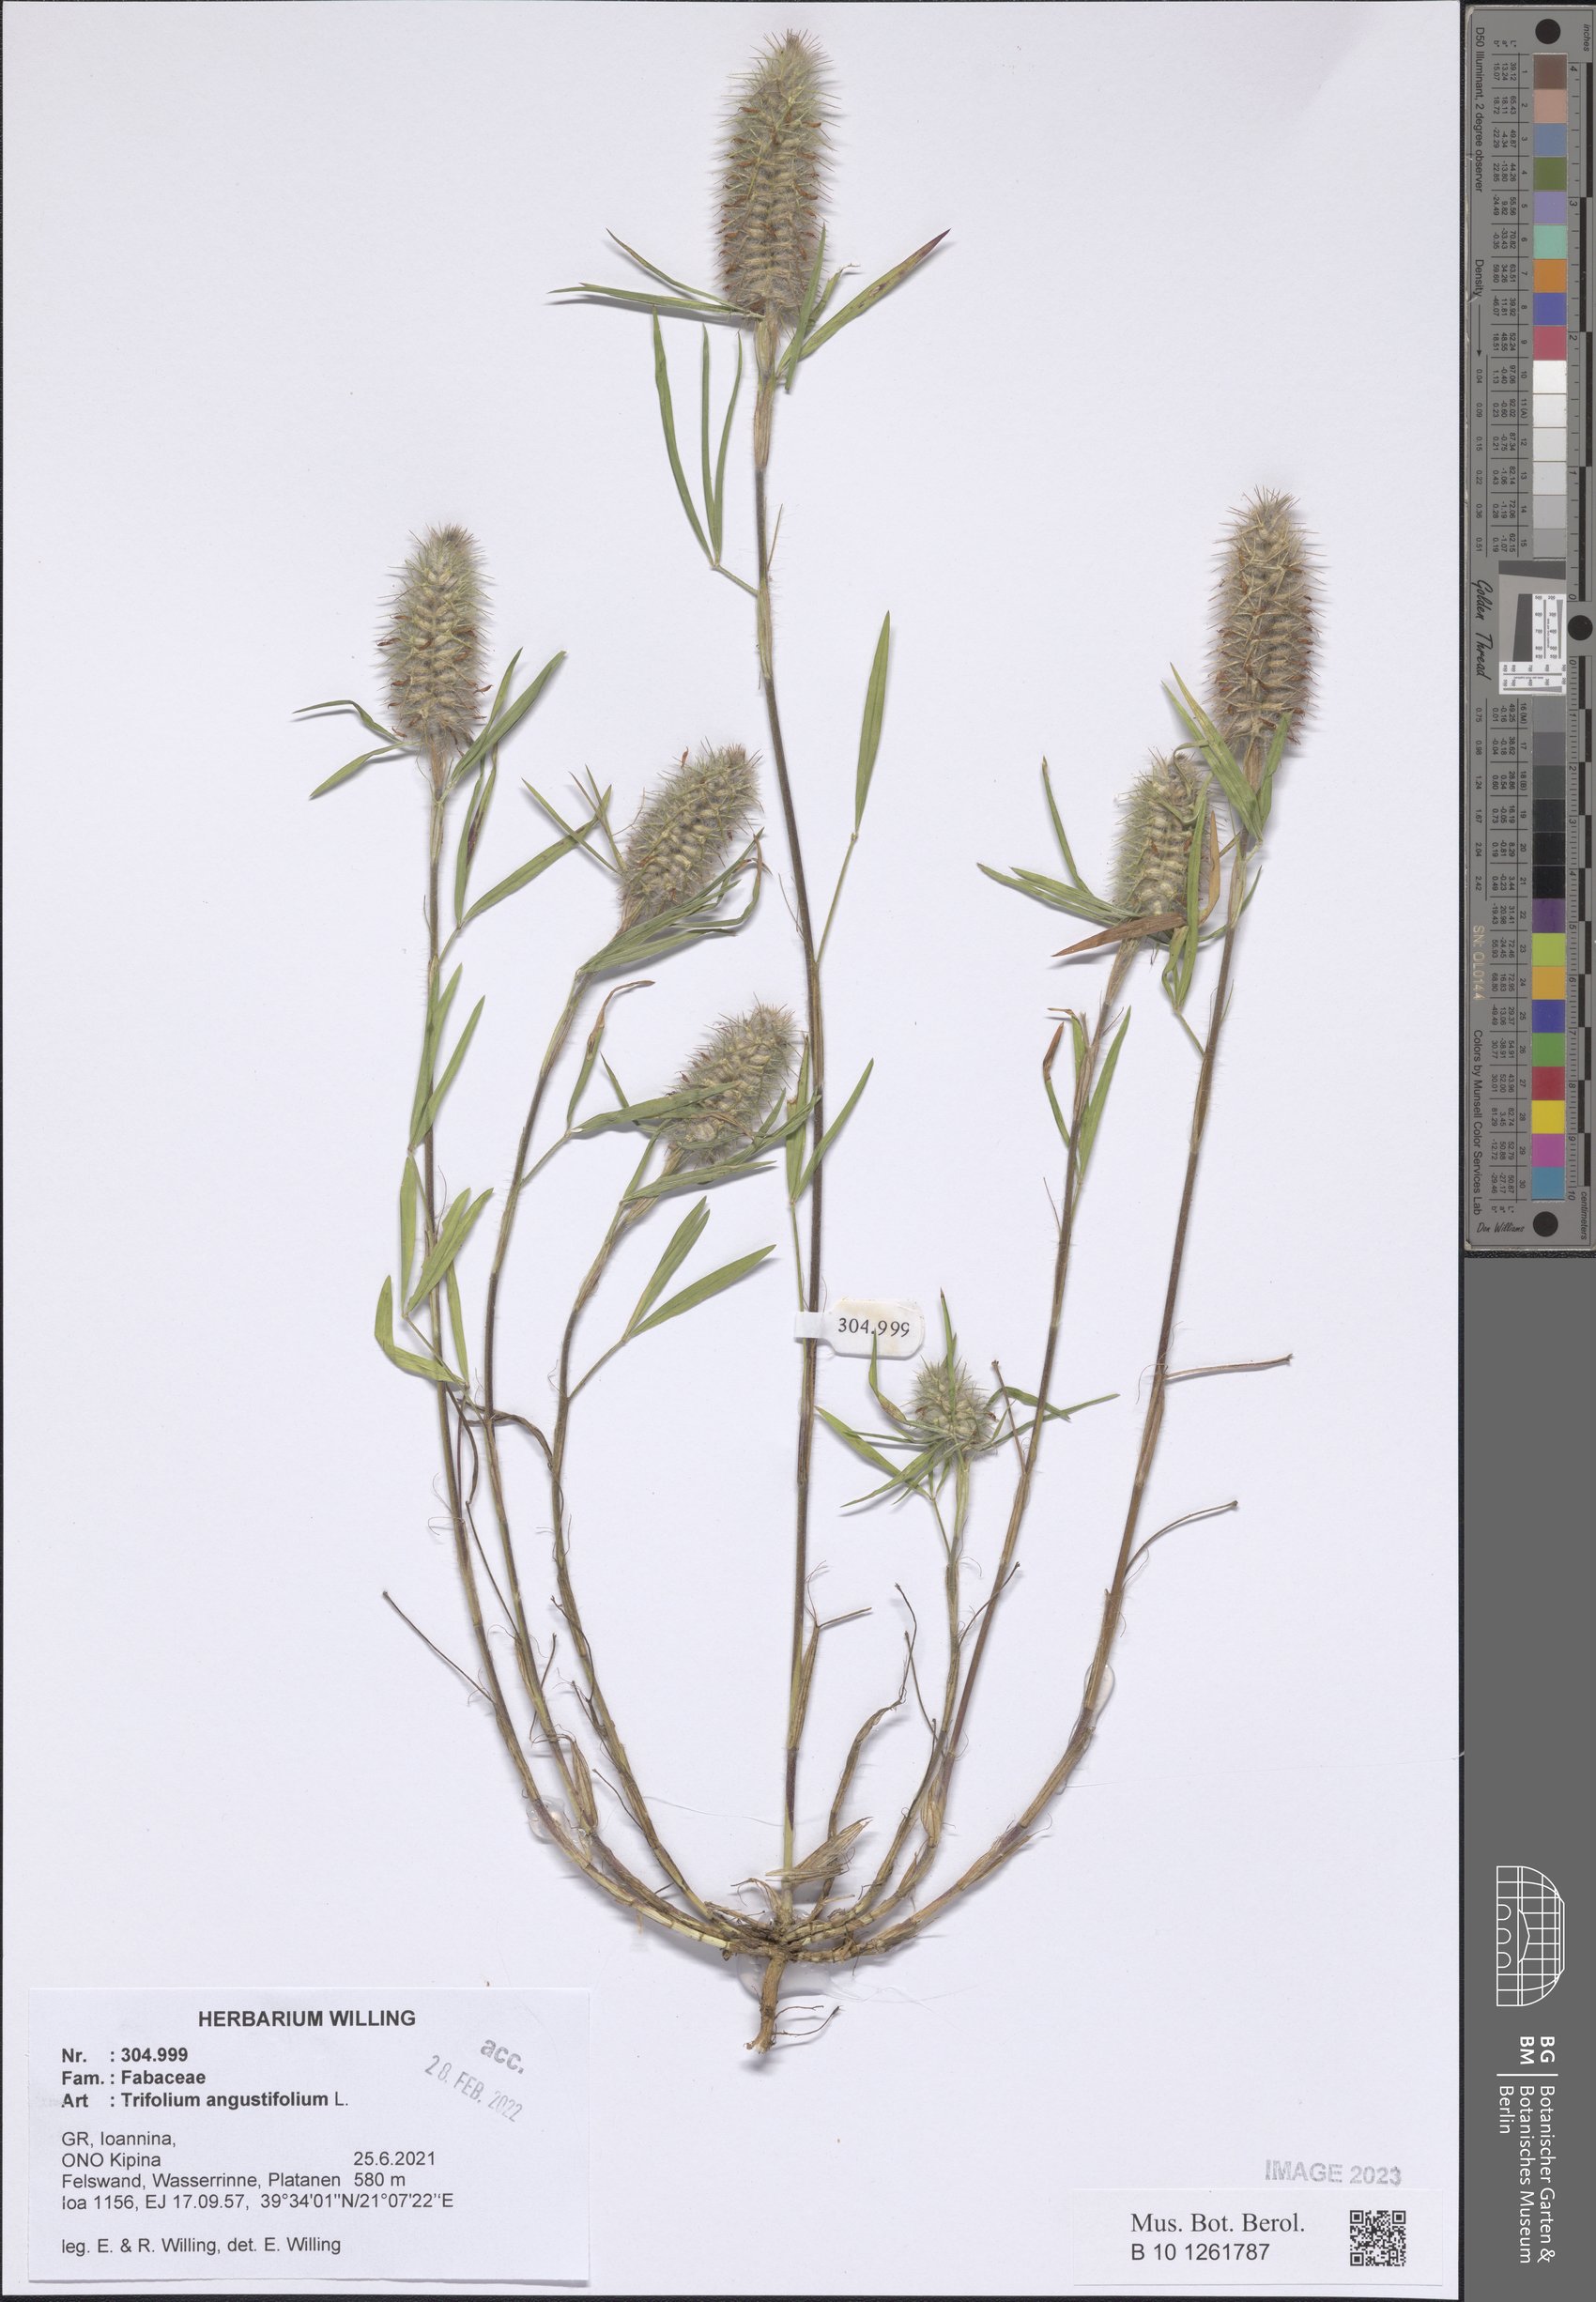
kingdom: Plantae
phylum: Tracheophyta
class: Magnoliopsida
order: Fabales
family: Fabaceae
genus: Trifolium
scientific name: Trifolium angustifolium
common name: Narrow clover
